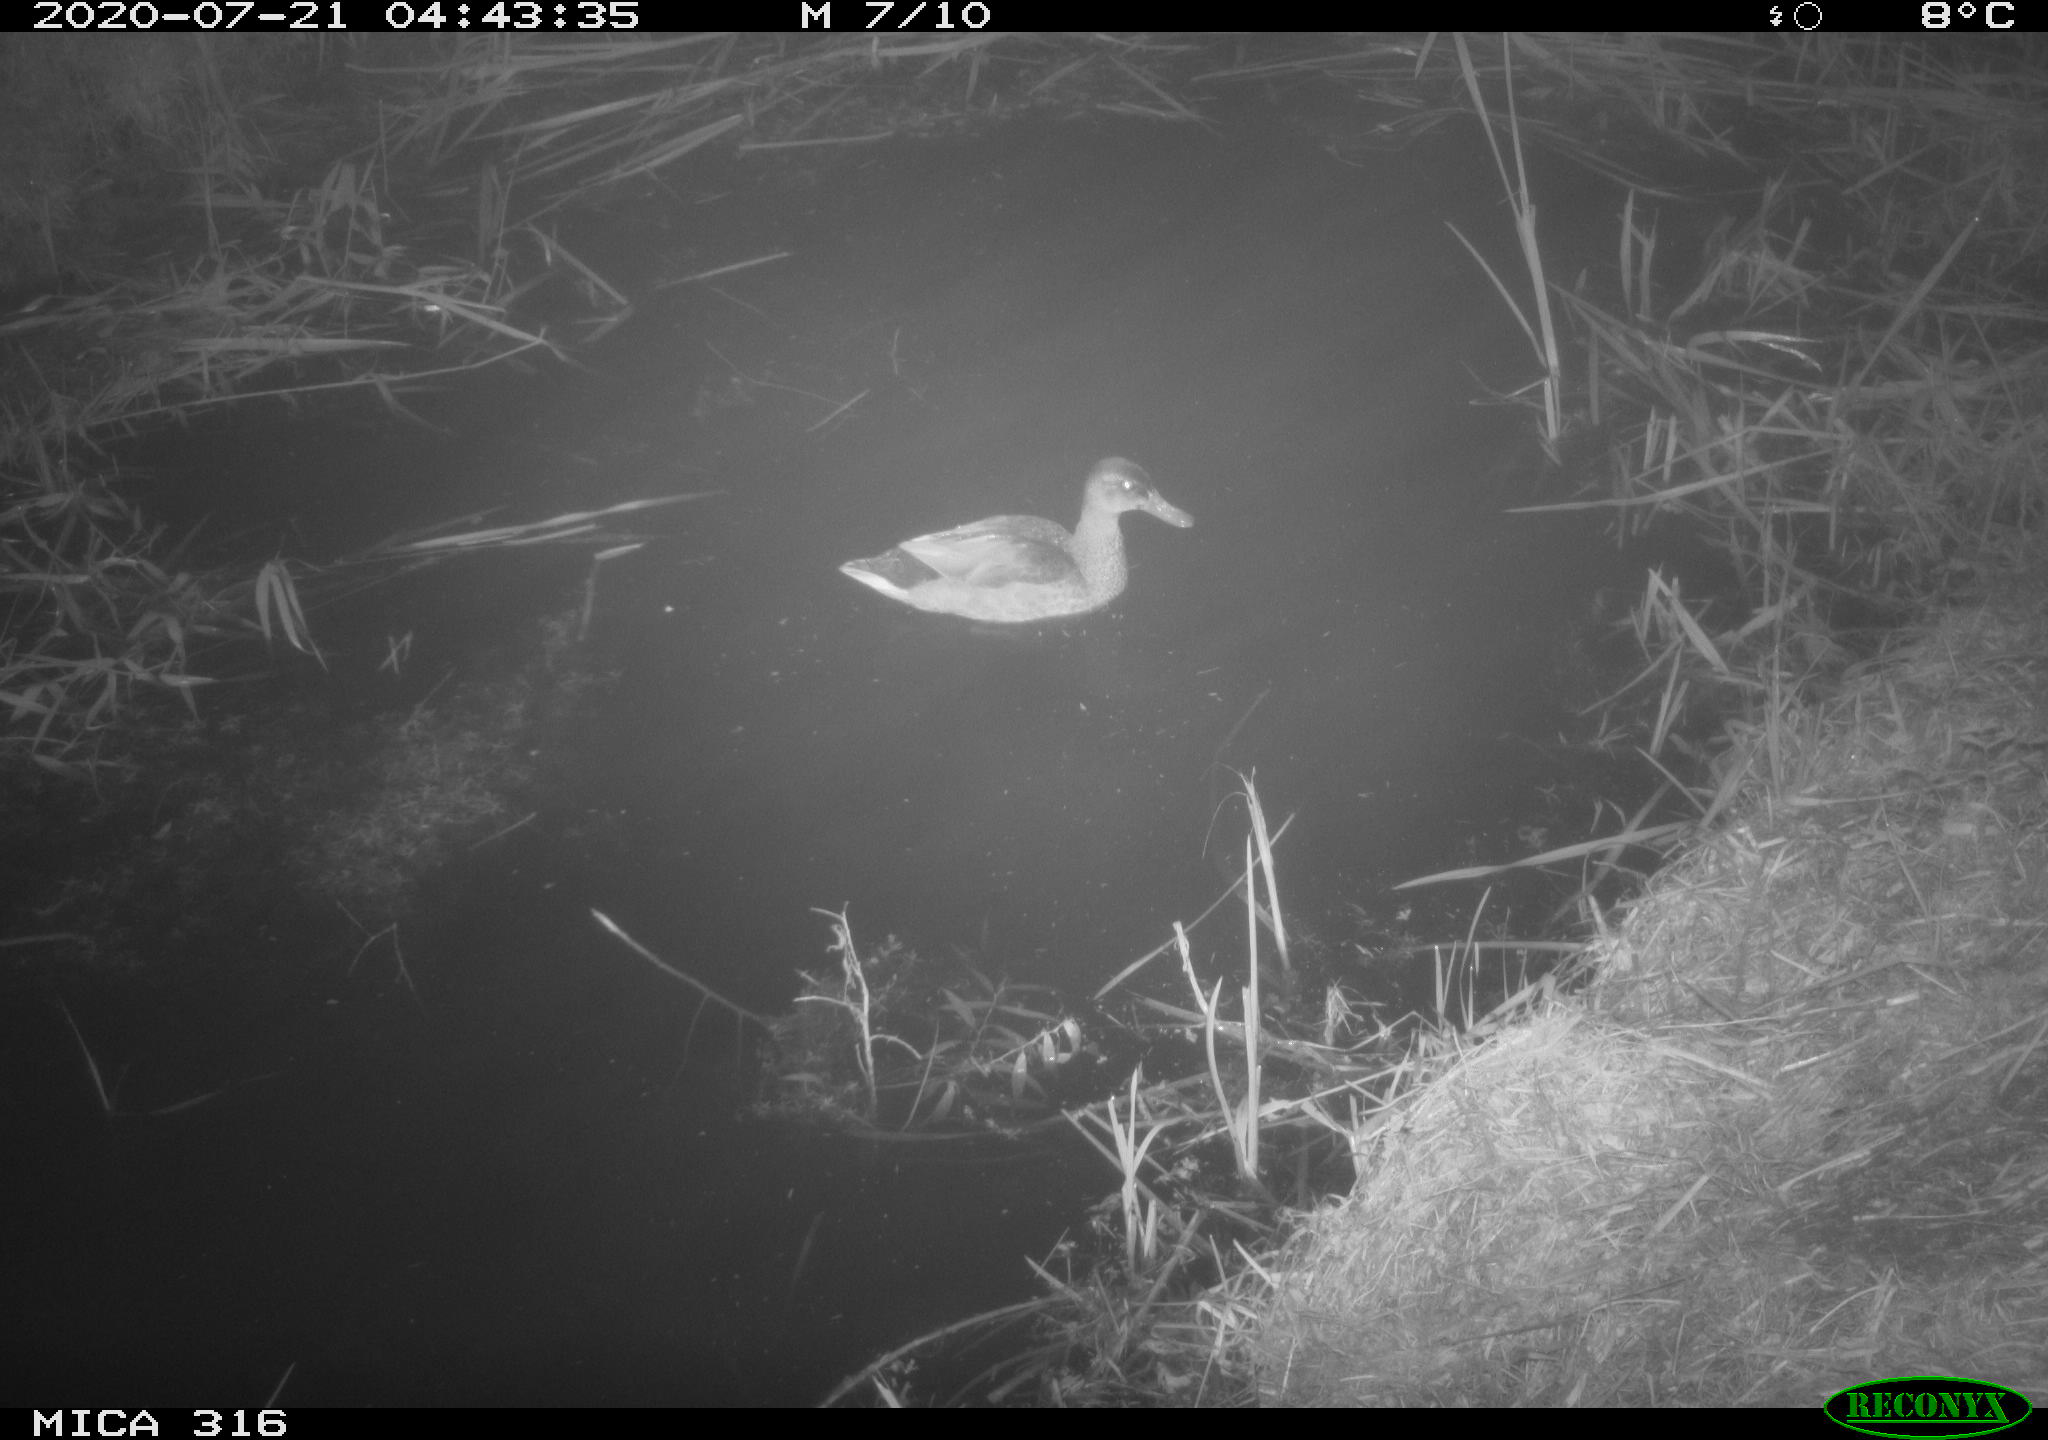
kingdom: Animalia
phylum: Chordata
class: Aves
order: Anseriformes
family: Anatidae
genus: Anas
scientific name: Anas platyrhynchos
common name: Mallard
